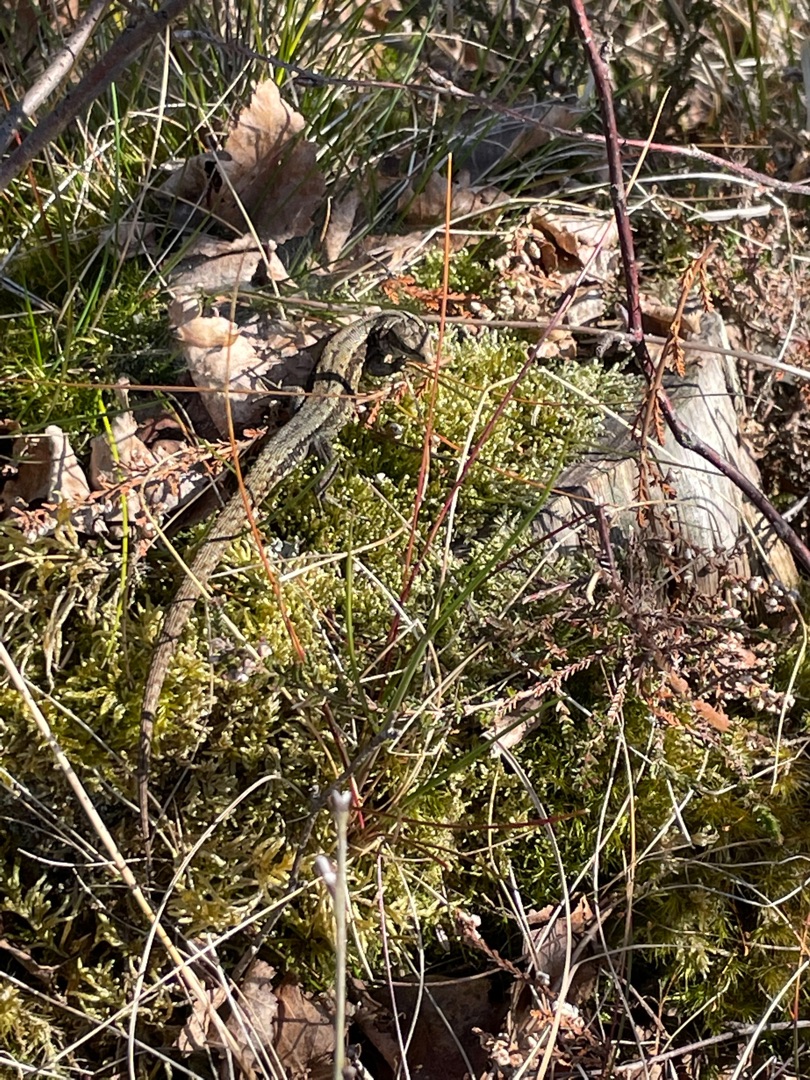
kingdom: Animalia
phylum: Chordata
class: Squamata
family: Lacertidae
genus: Zootoca
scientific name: Zootoca vivipara
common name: Skovfirben
